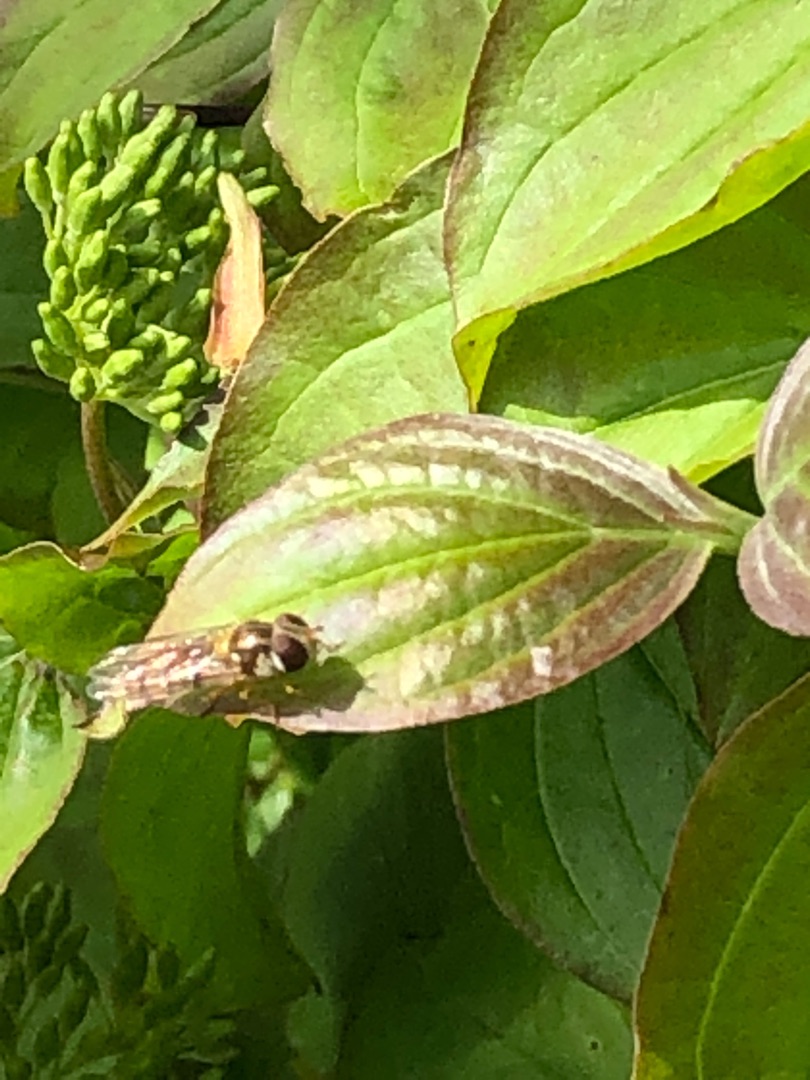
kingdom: Animalia
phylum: Arthropoda
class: Insecta
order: Diptera
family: Syrphidae
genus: Episyrphus
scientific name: Episyrphus balteatus
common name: Dobbeltbåndet svirreflue
